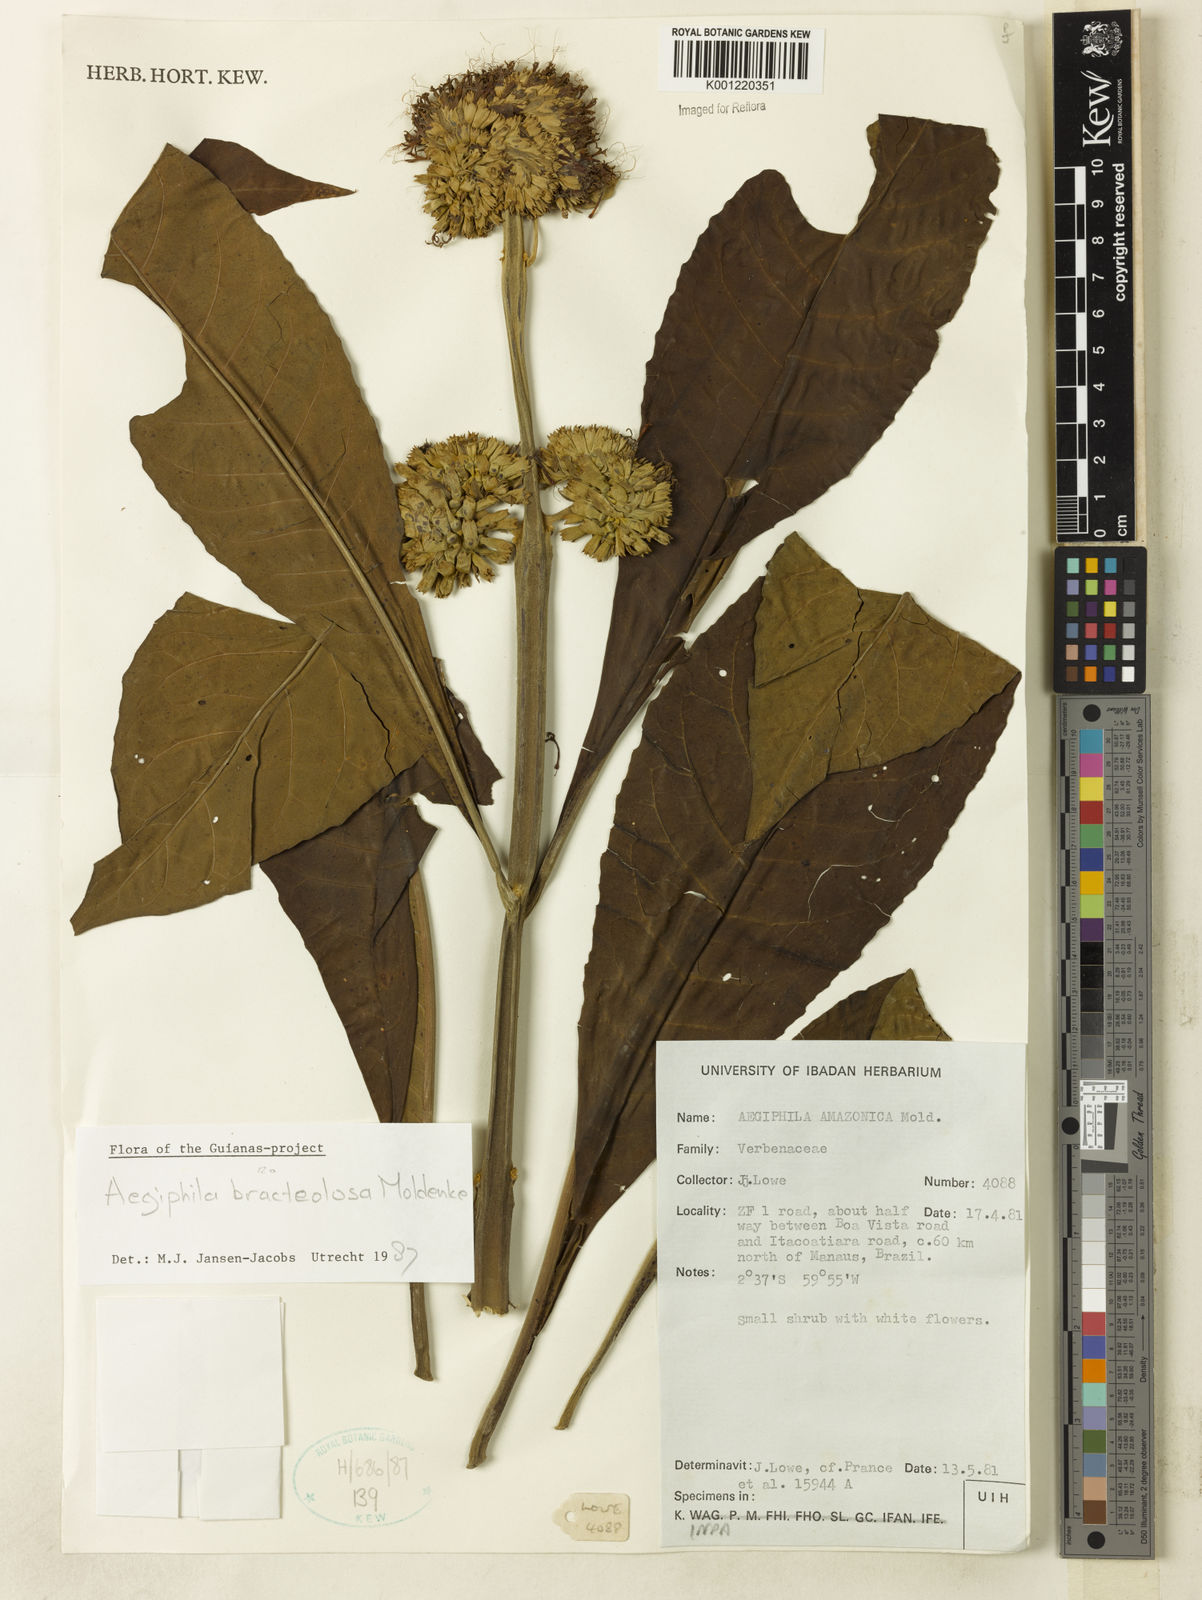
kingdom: Plantae
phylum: Tracheophyta
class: Magnoliopsida
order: Lamiales
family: Lamiaceae
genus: Aegiphila
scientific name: Aegiphila bracteolosa
